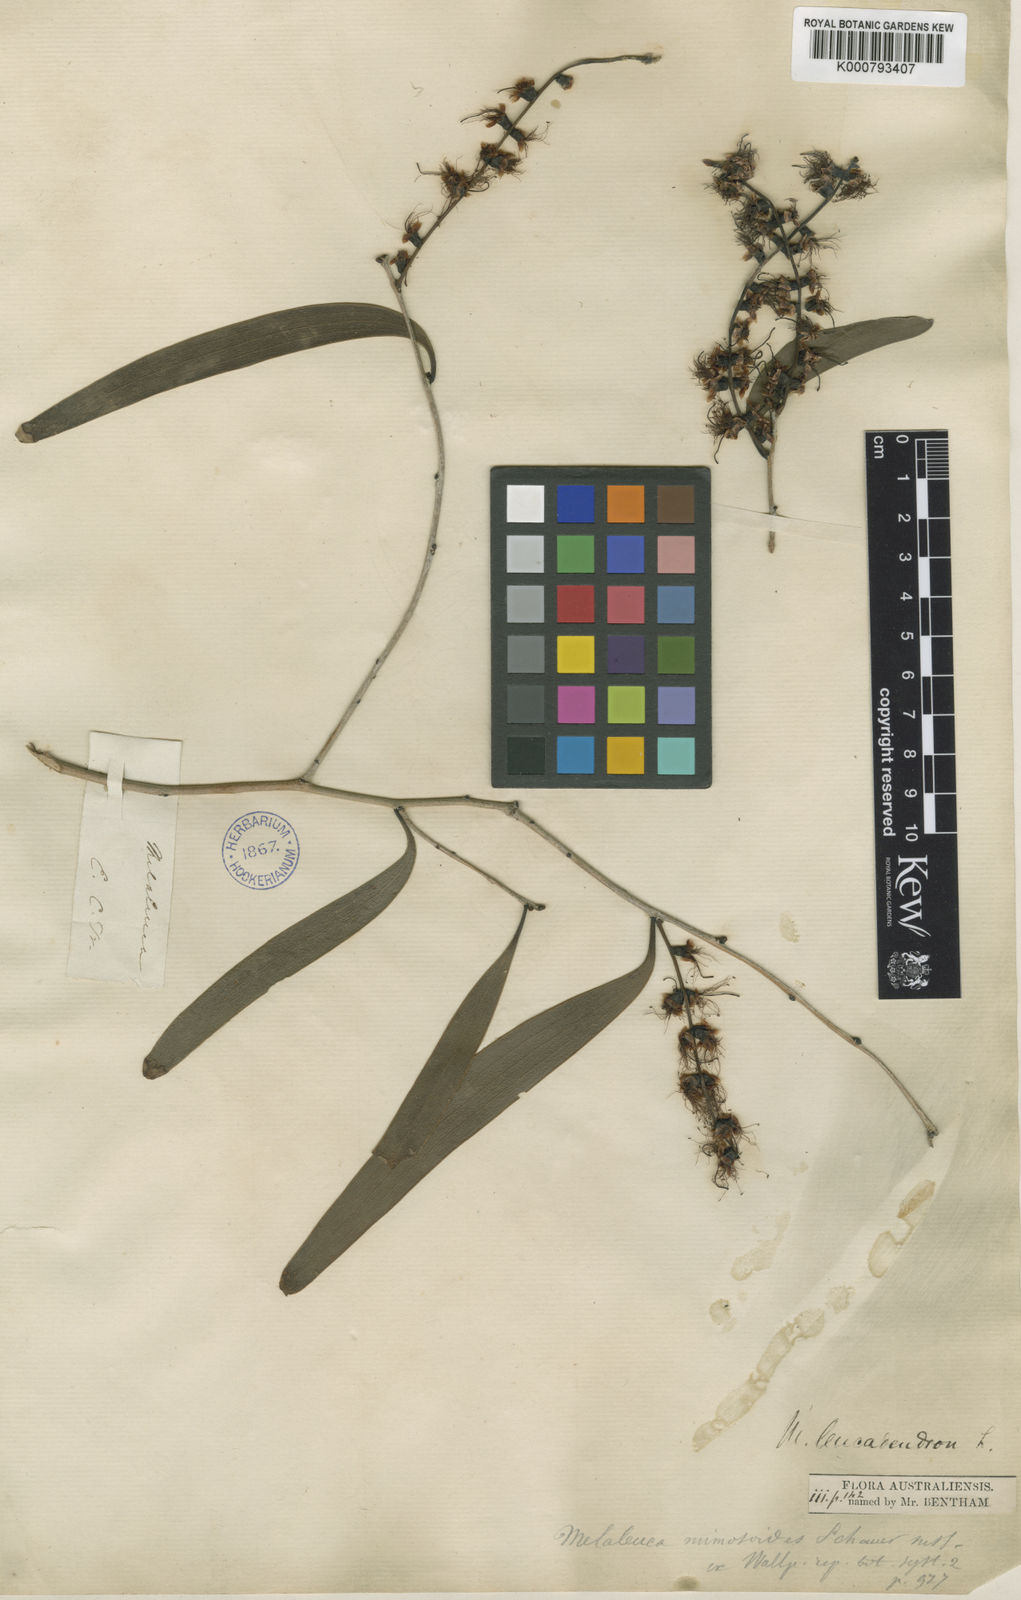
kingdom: Plantae
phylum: Tracheophyta
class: Magnoliopsida
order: Myrtales
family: Myrtaceae
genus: Melaleuca
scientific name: Melaleuca leucadendra
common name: Weeping paperbark
